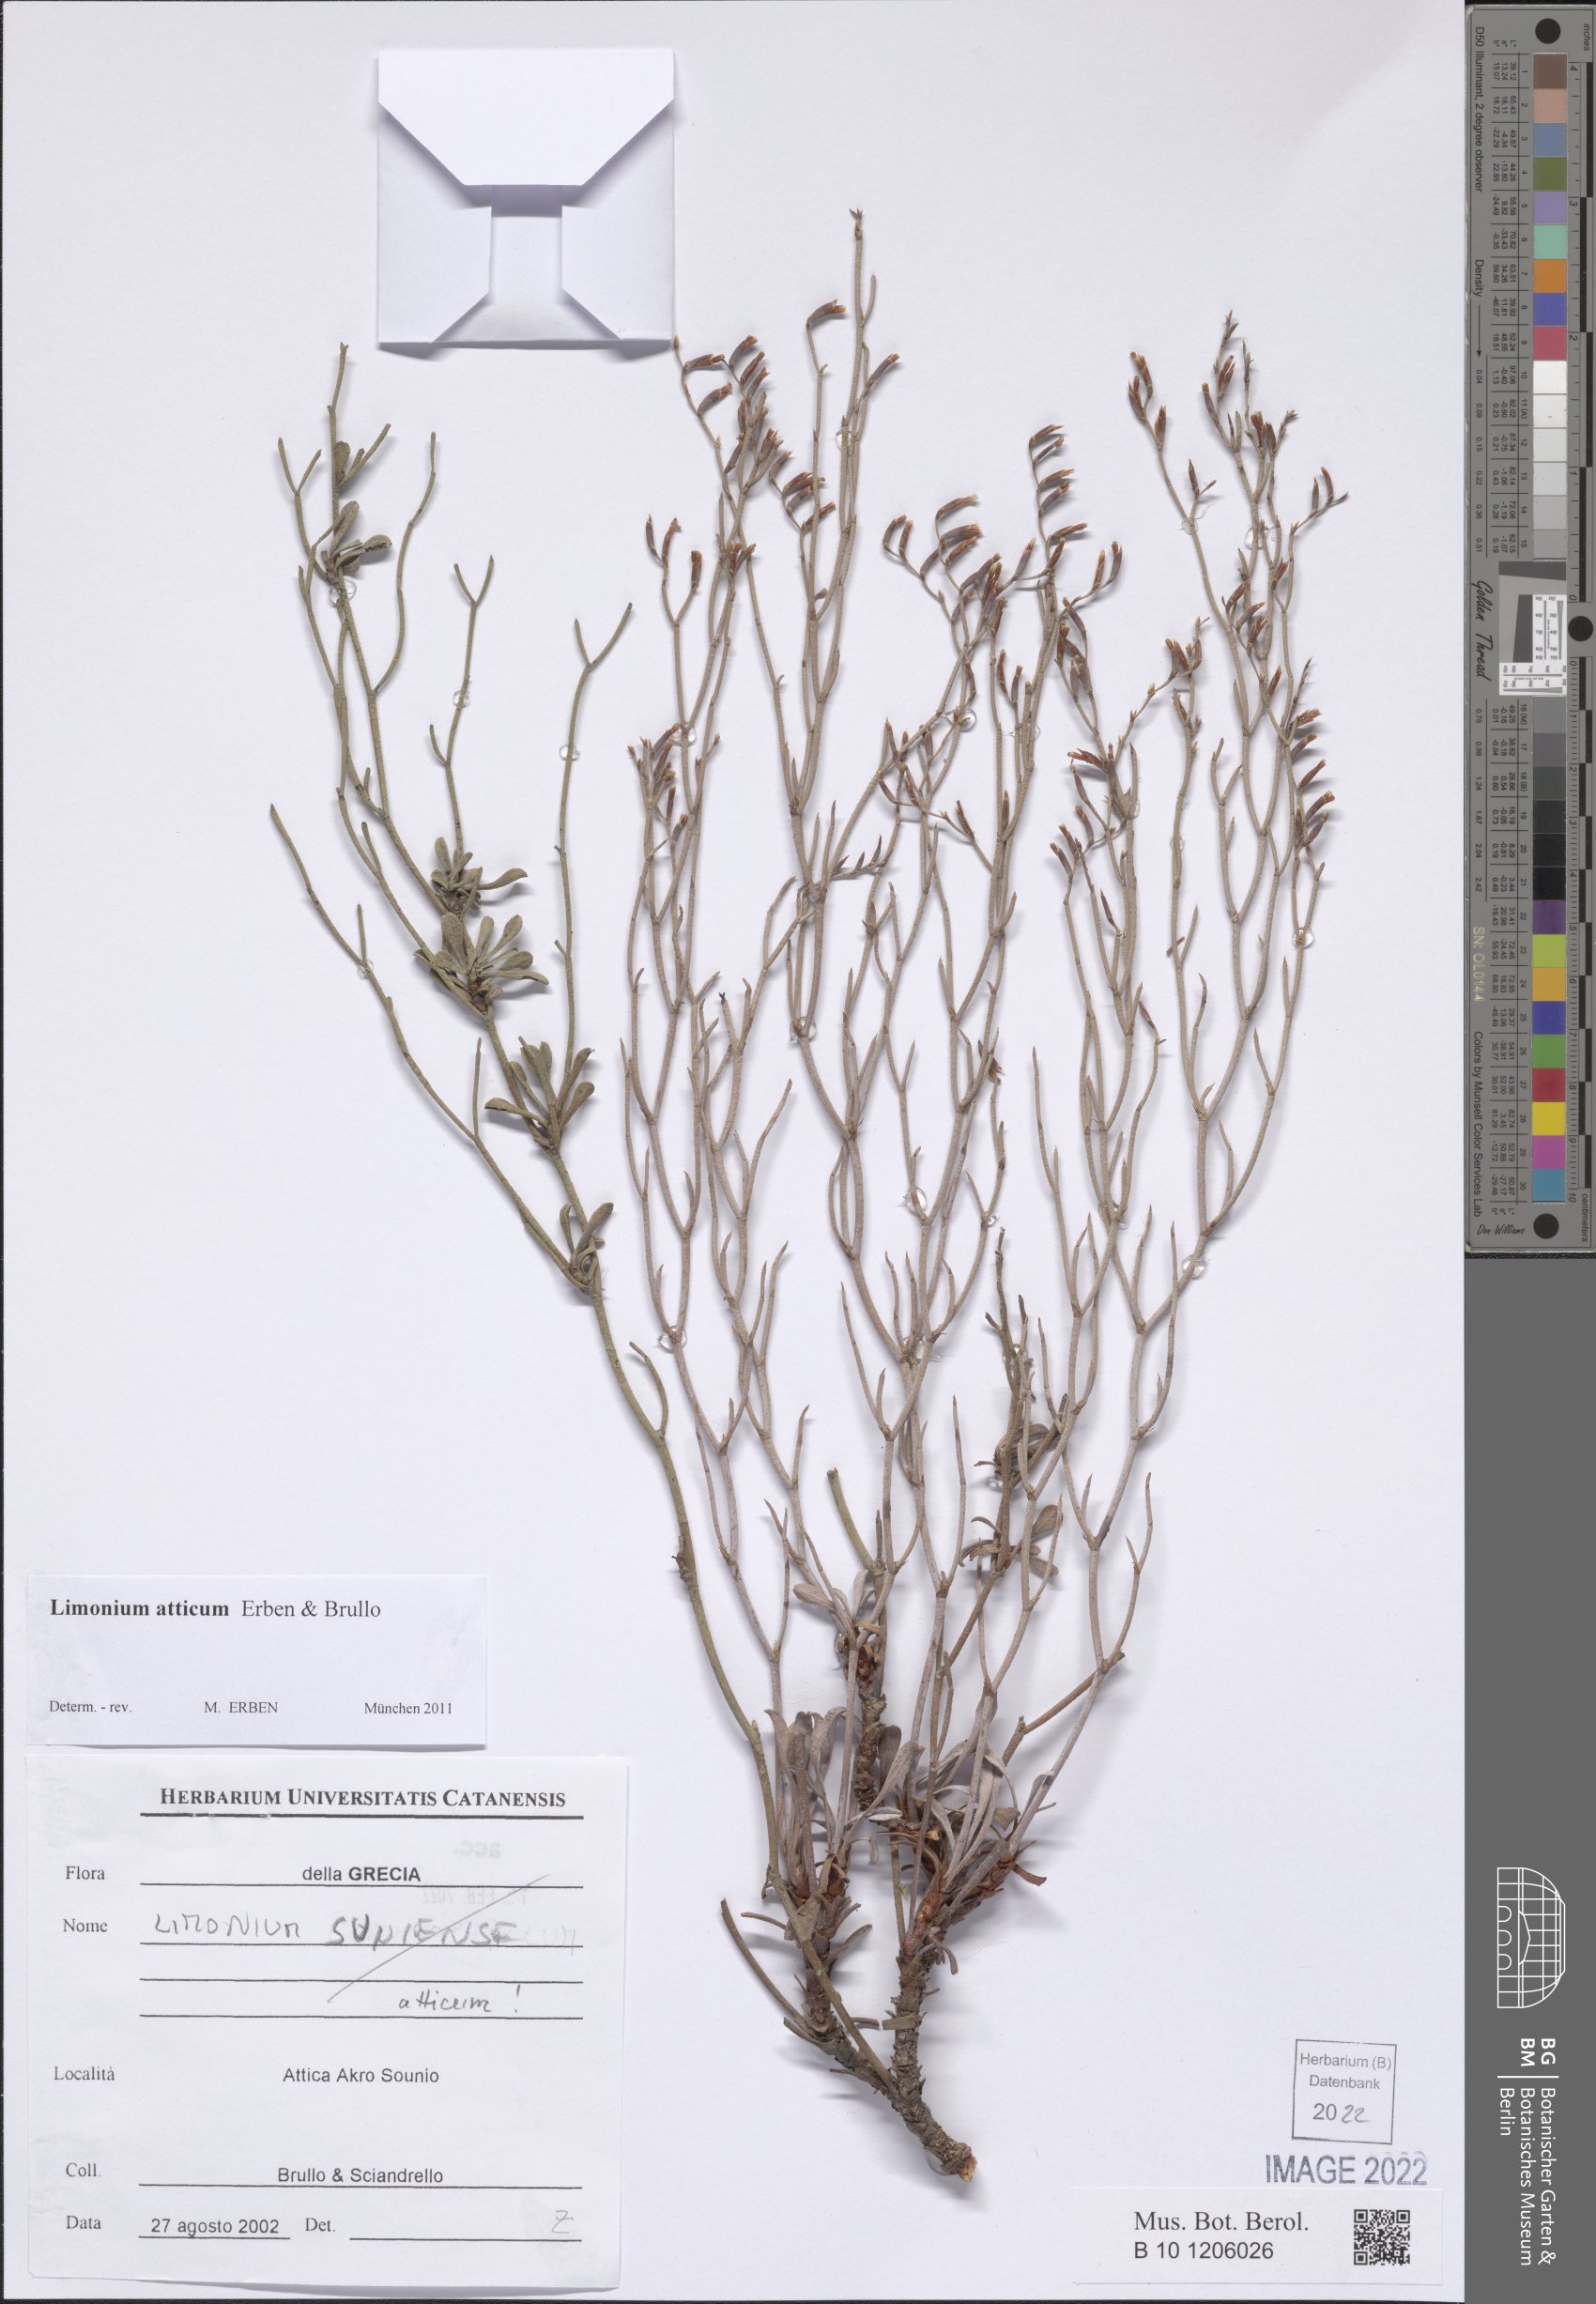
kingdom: Plantae
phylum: Tracheophyta
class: Magnoliopsida
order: Caryophyllales
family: Plumbaginaceae
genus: Limonium
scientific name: Limonium atticum
